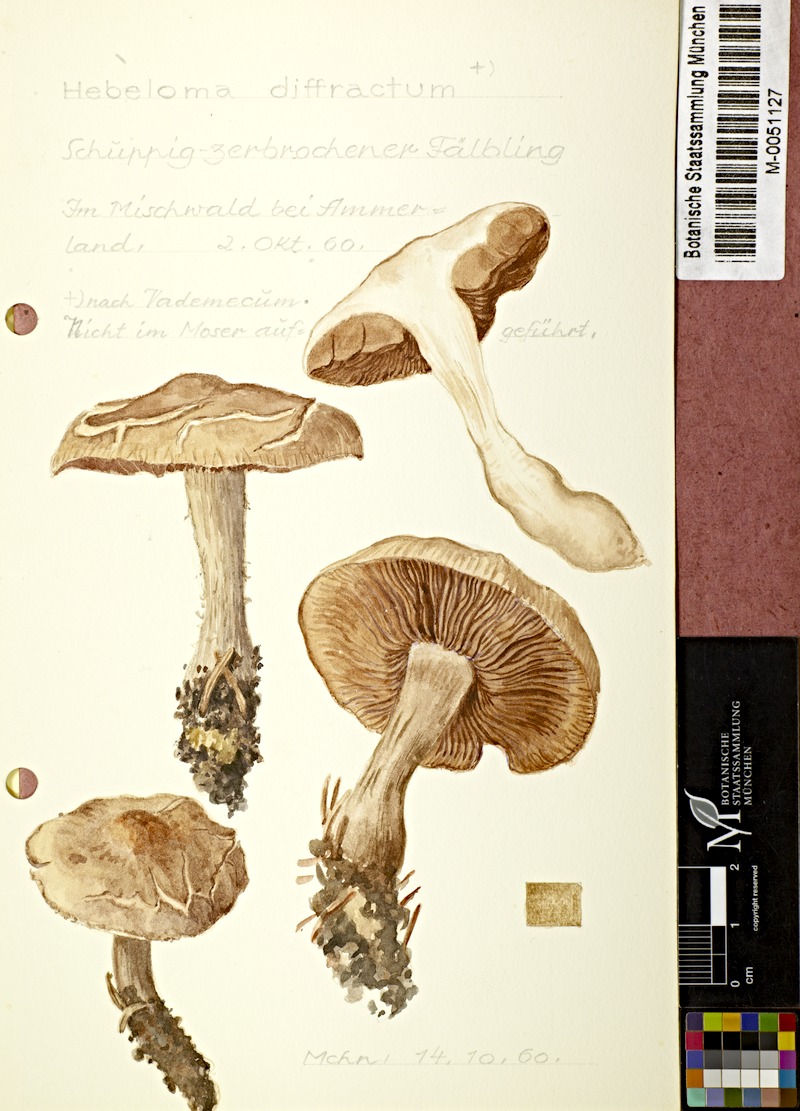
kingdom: Fungi
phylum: Basidiomycota
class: Agaricomycetes
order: Agaricales
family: Hymenogastraceae
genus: Hebeloma
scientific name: Hebeloma crustuliniforme
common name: Poison pie
